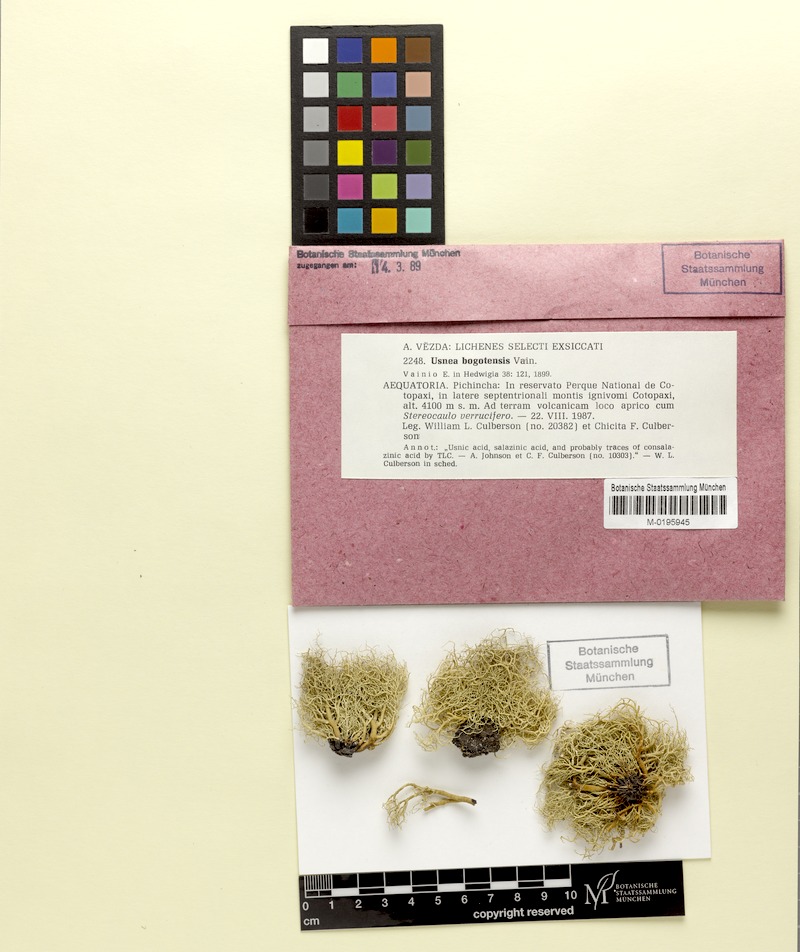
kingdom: Fungi
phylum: Ascomycota
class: Lecanoromycetes
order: Lecanorales
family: Parmeliaceae
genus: Usnea
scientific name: Usnea bogotensis
